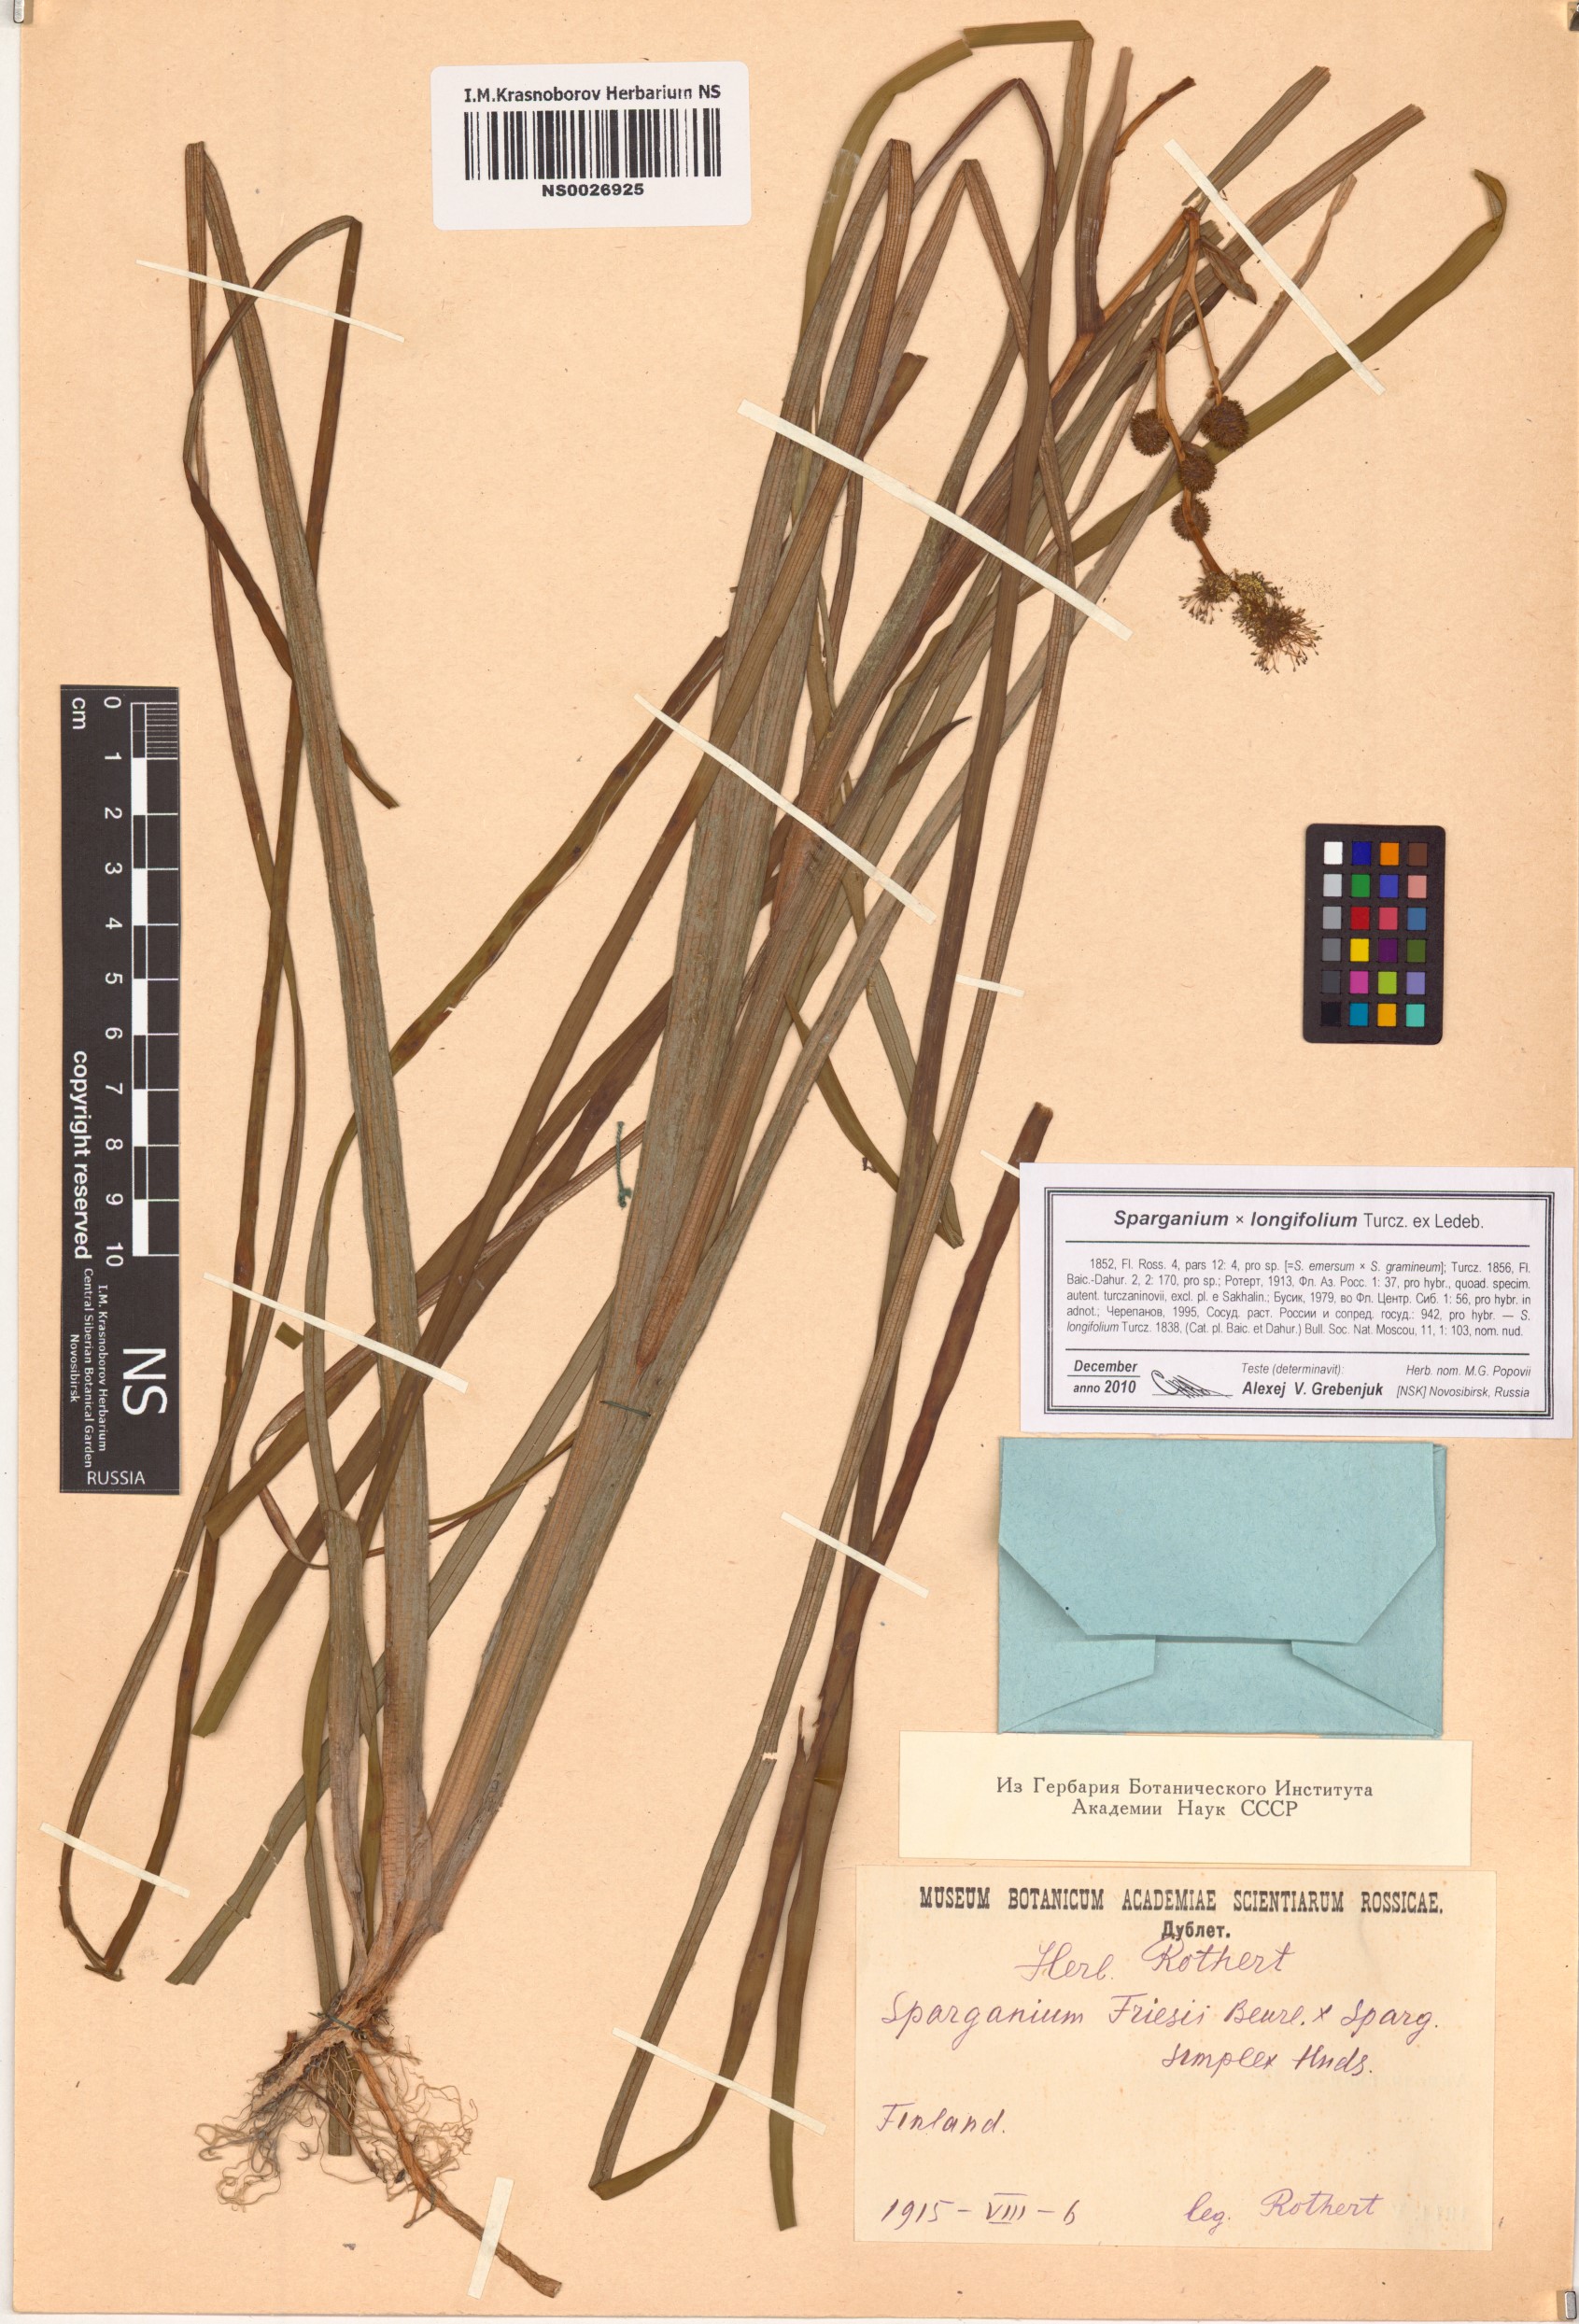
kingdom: Plantae
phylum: Tracheophyta
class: Liliopsida
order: Poales
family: Typhaceae
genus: Sparganium
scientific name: Sparganium longifolium
